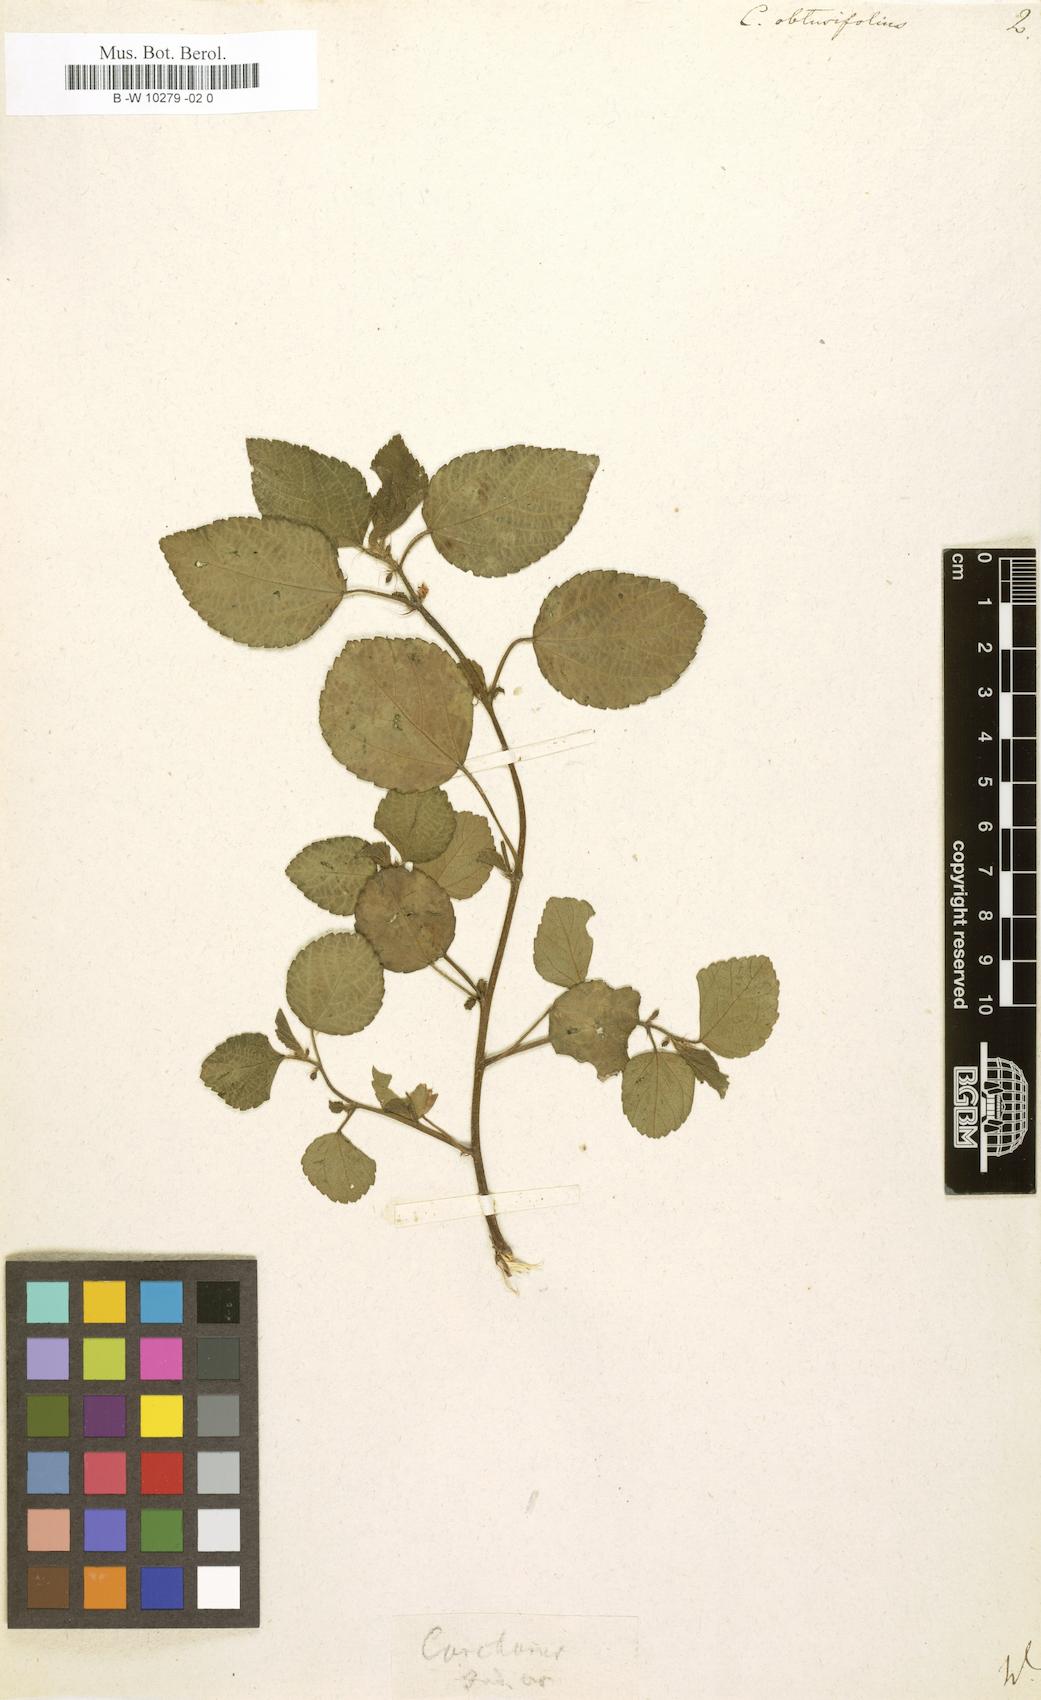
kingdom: Plantae
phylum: Tracheophyta
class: Magnoliopsida
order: Malvales
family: Malvaceae
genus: Corchorus
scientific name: Corchorus
